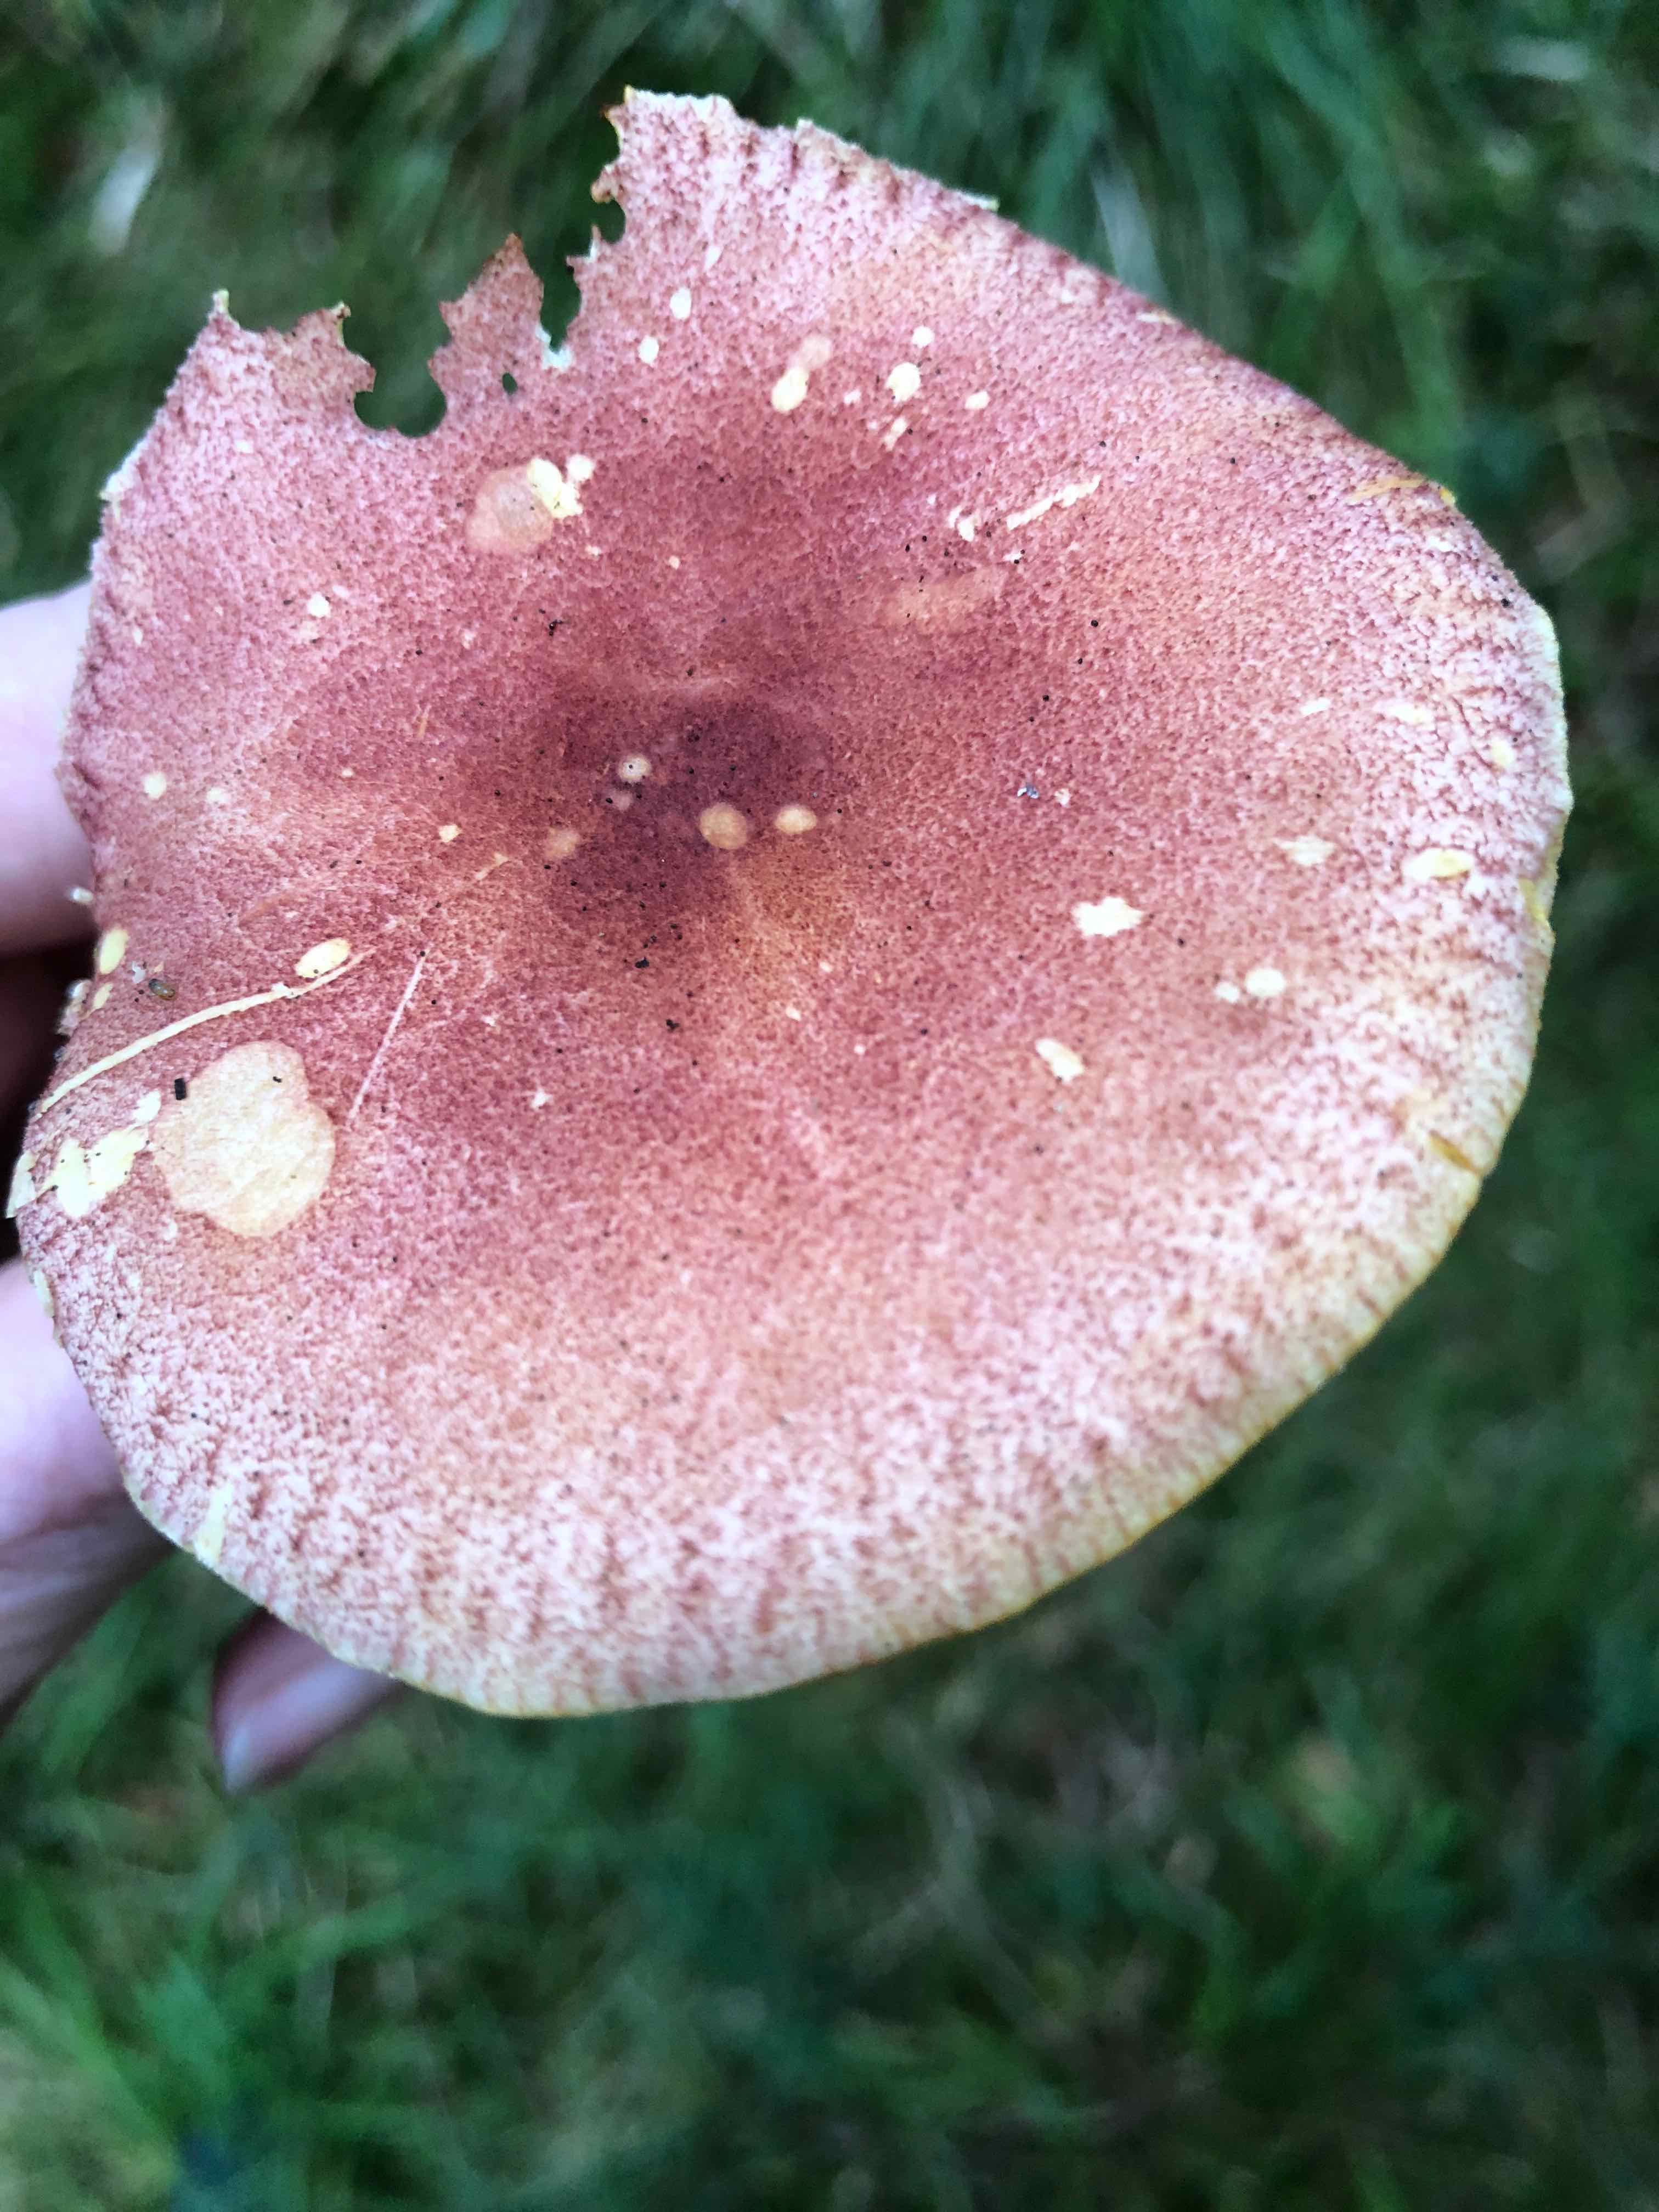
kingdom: Fungi
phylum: Basidiomycota
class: Agaricomycetes
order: Agaricales
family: Tricholomataceae
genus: Tricholomopsis
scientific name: Tricholomopsis rutilans
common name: purpur-væbnerhat
